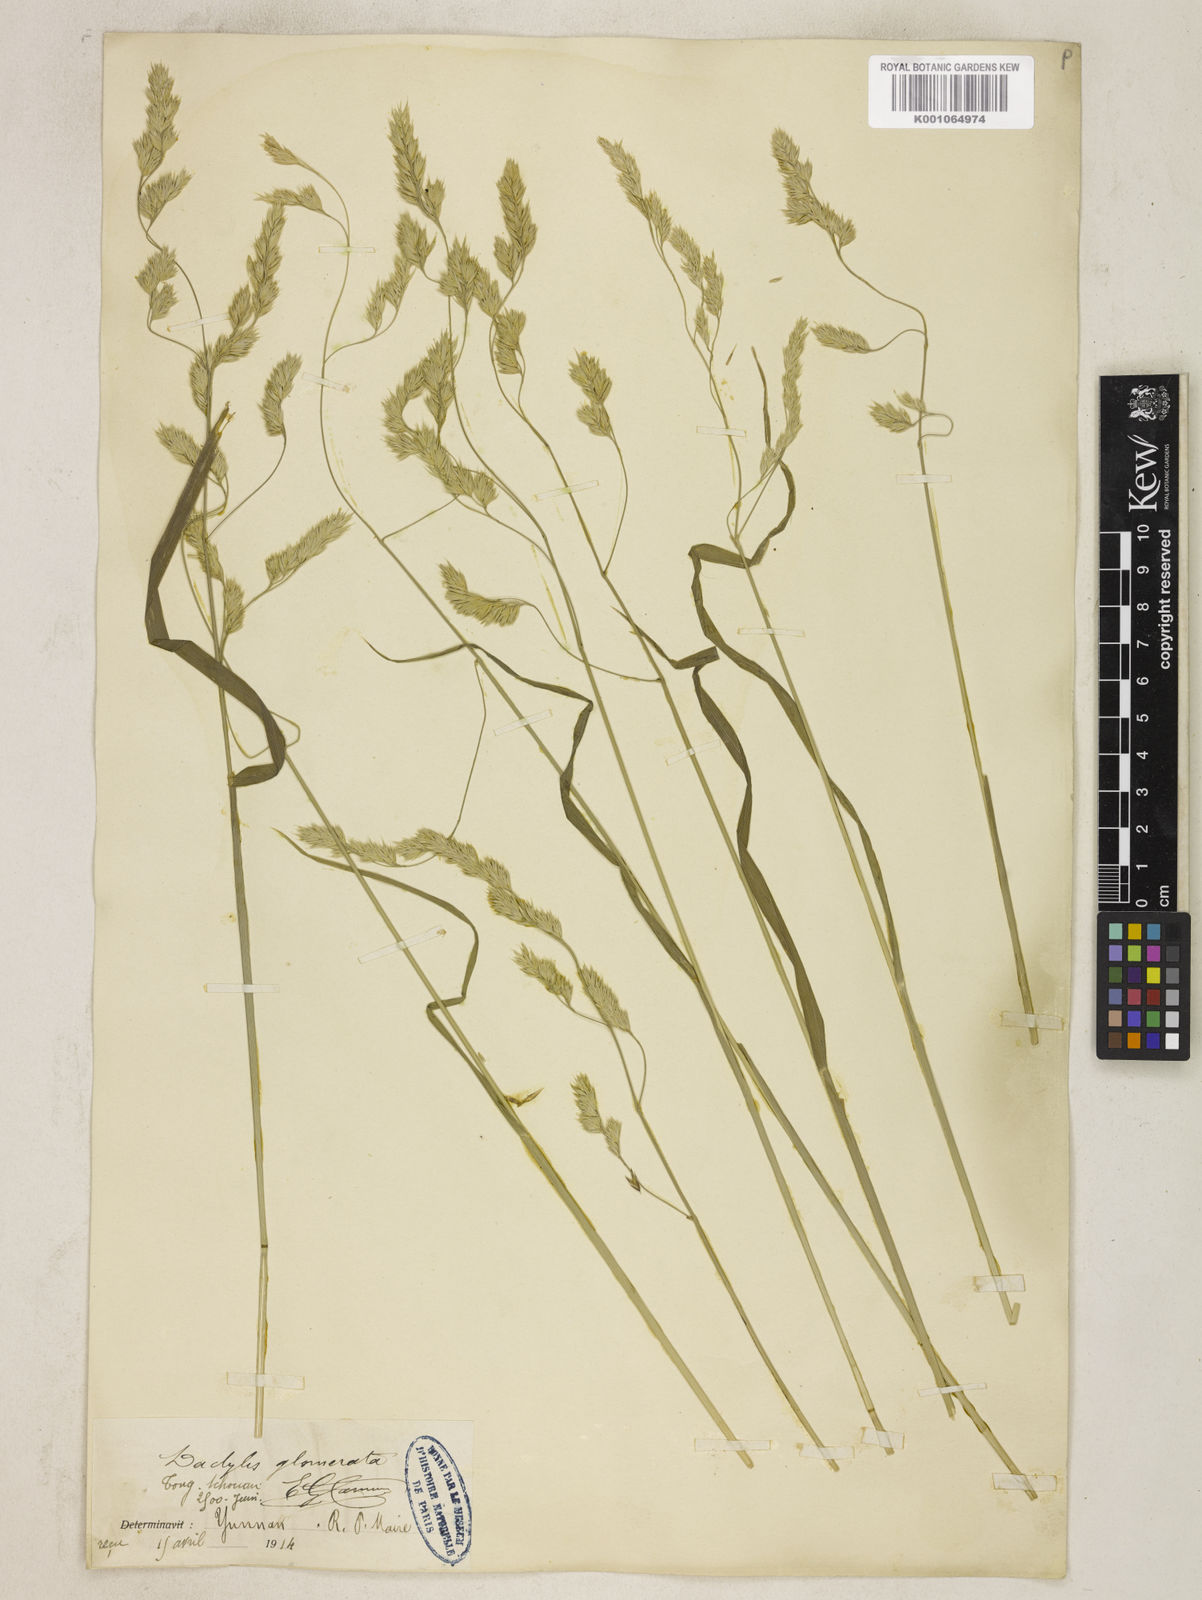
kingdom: Plantae
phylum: Tracheophyta
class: Liliopsida
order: Poales
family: Poaceae
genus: Dactylis
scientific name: Dactylis glomerata
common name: Orchardgrass
